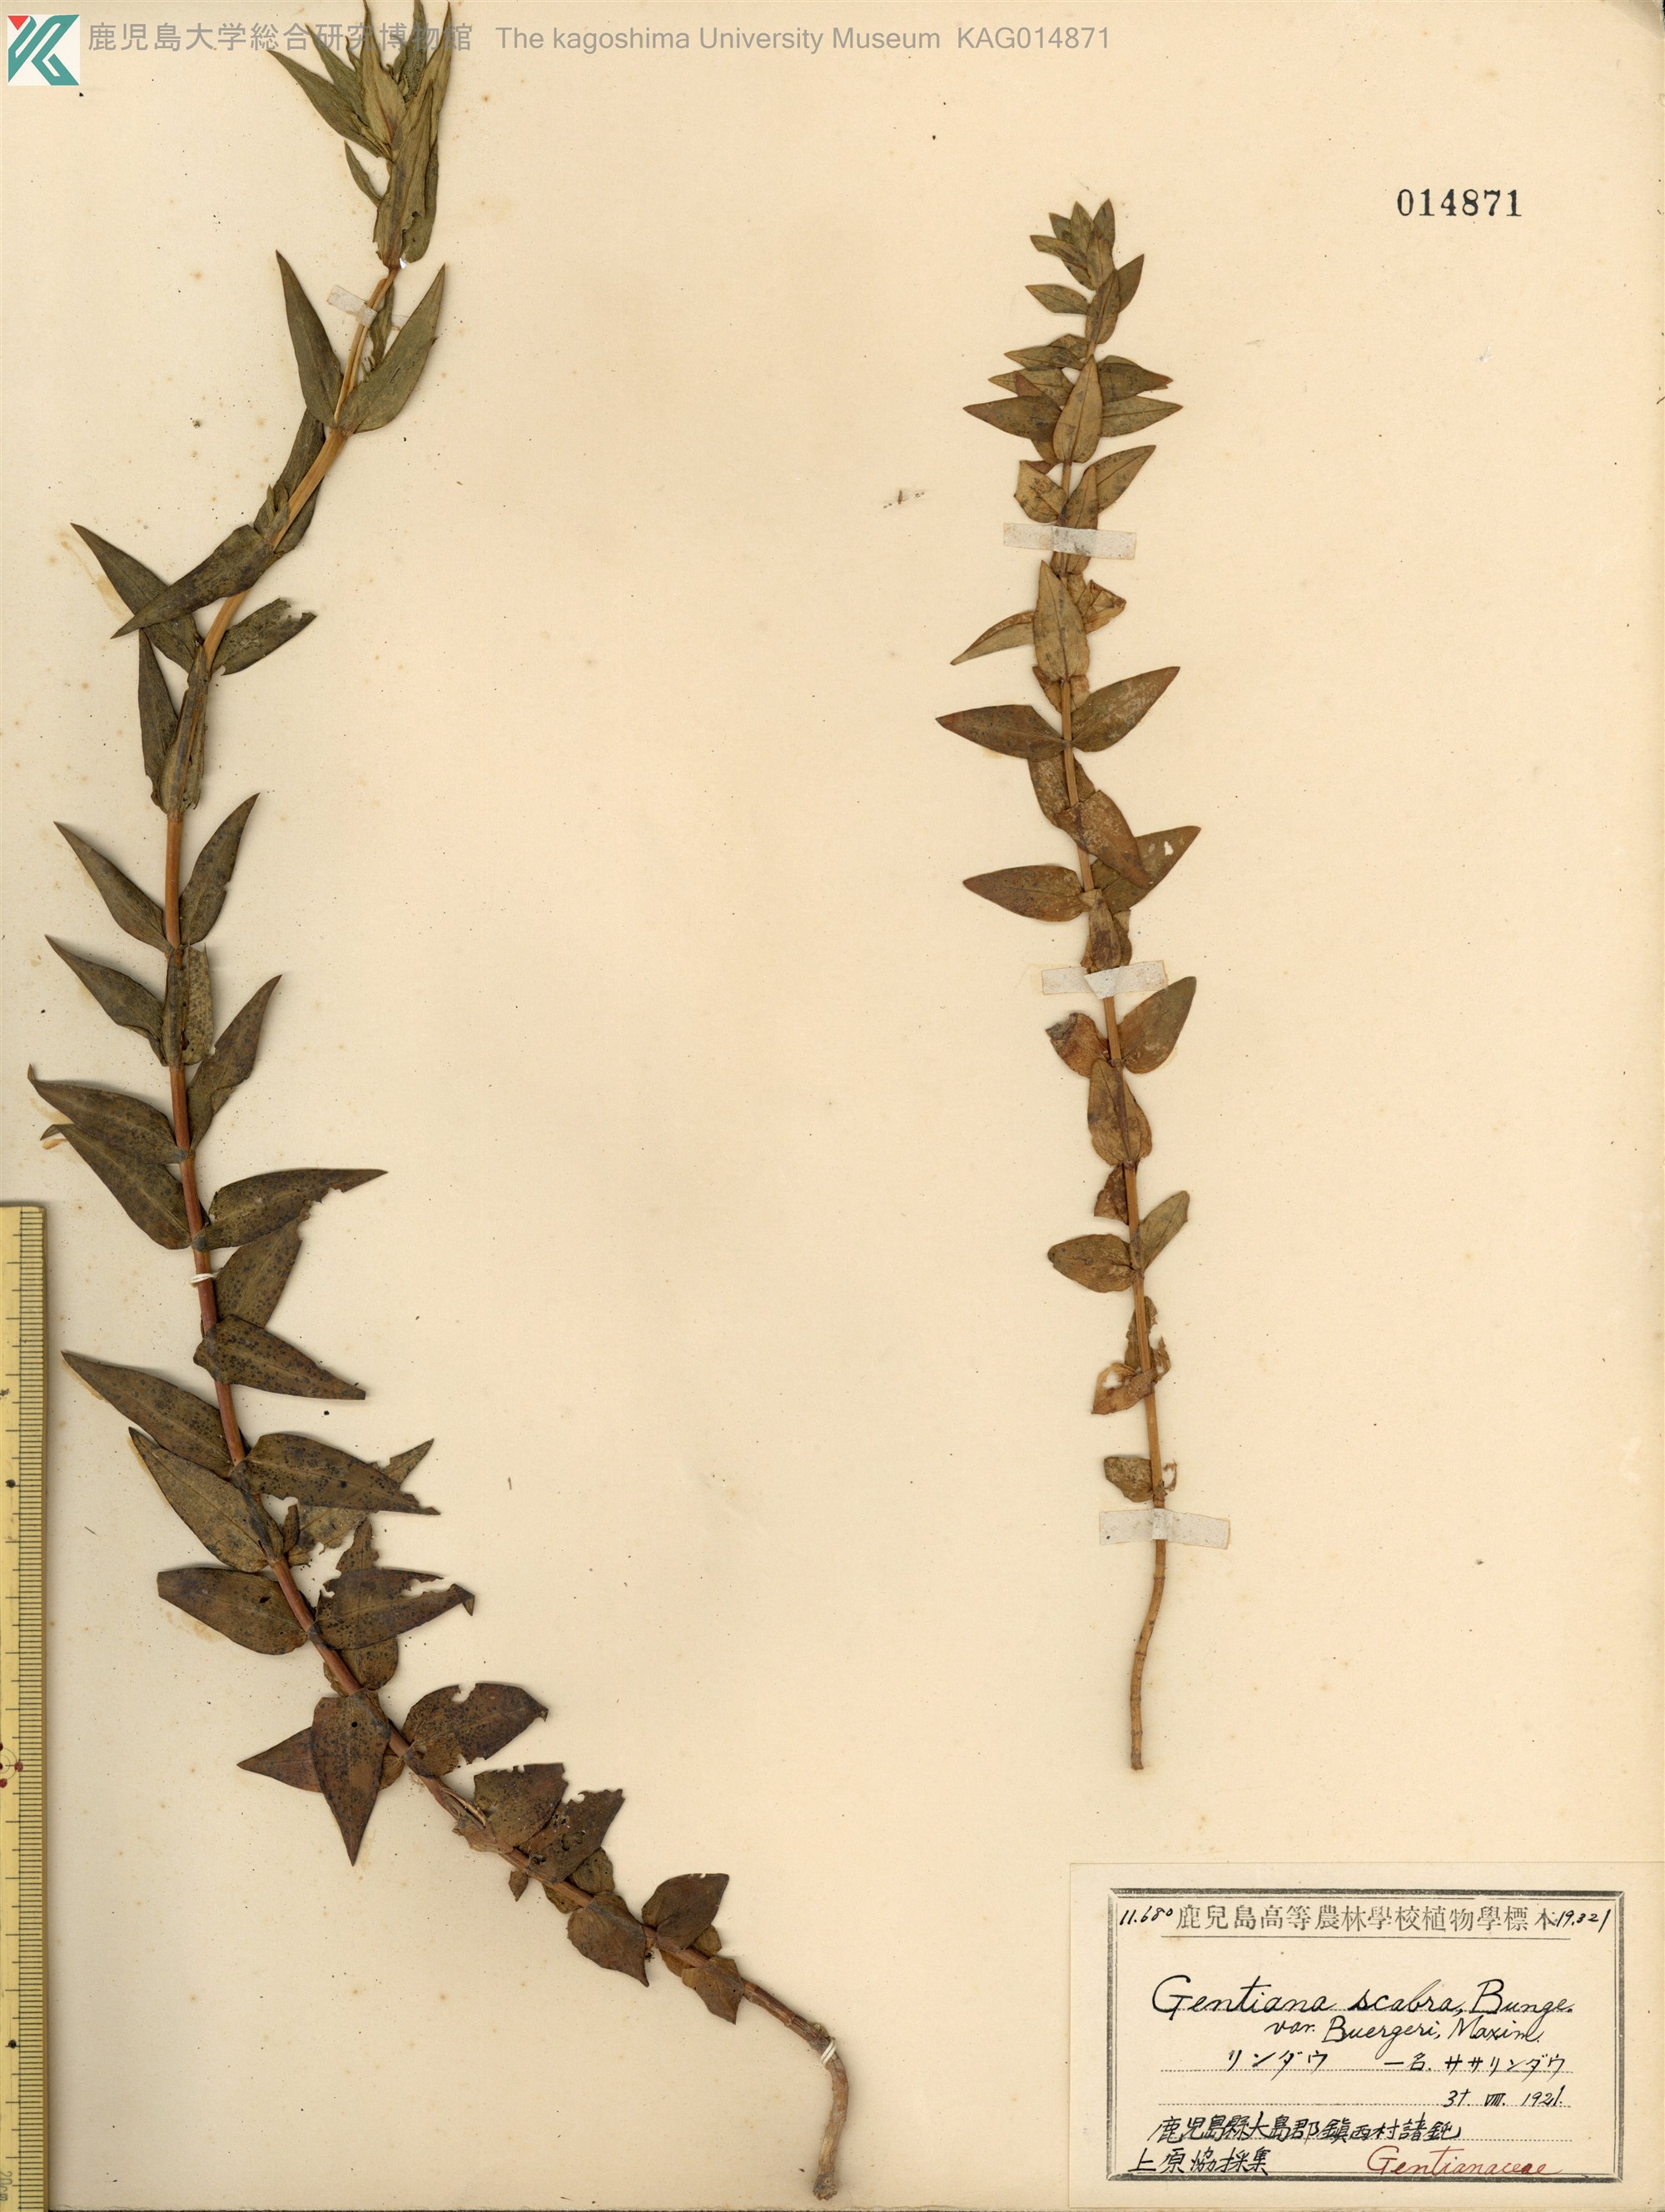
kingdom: Plantae
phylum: Tracheophyta
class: Magnoliopsida
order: Gentianales
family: Gentianaceae
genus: Gentiana
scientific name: Gentiana scabra
